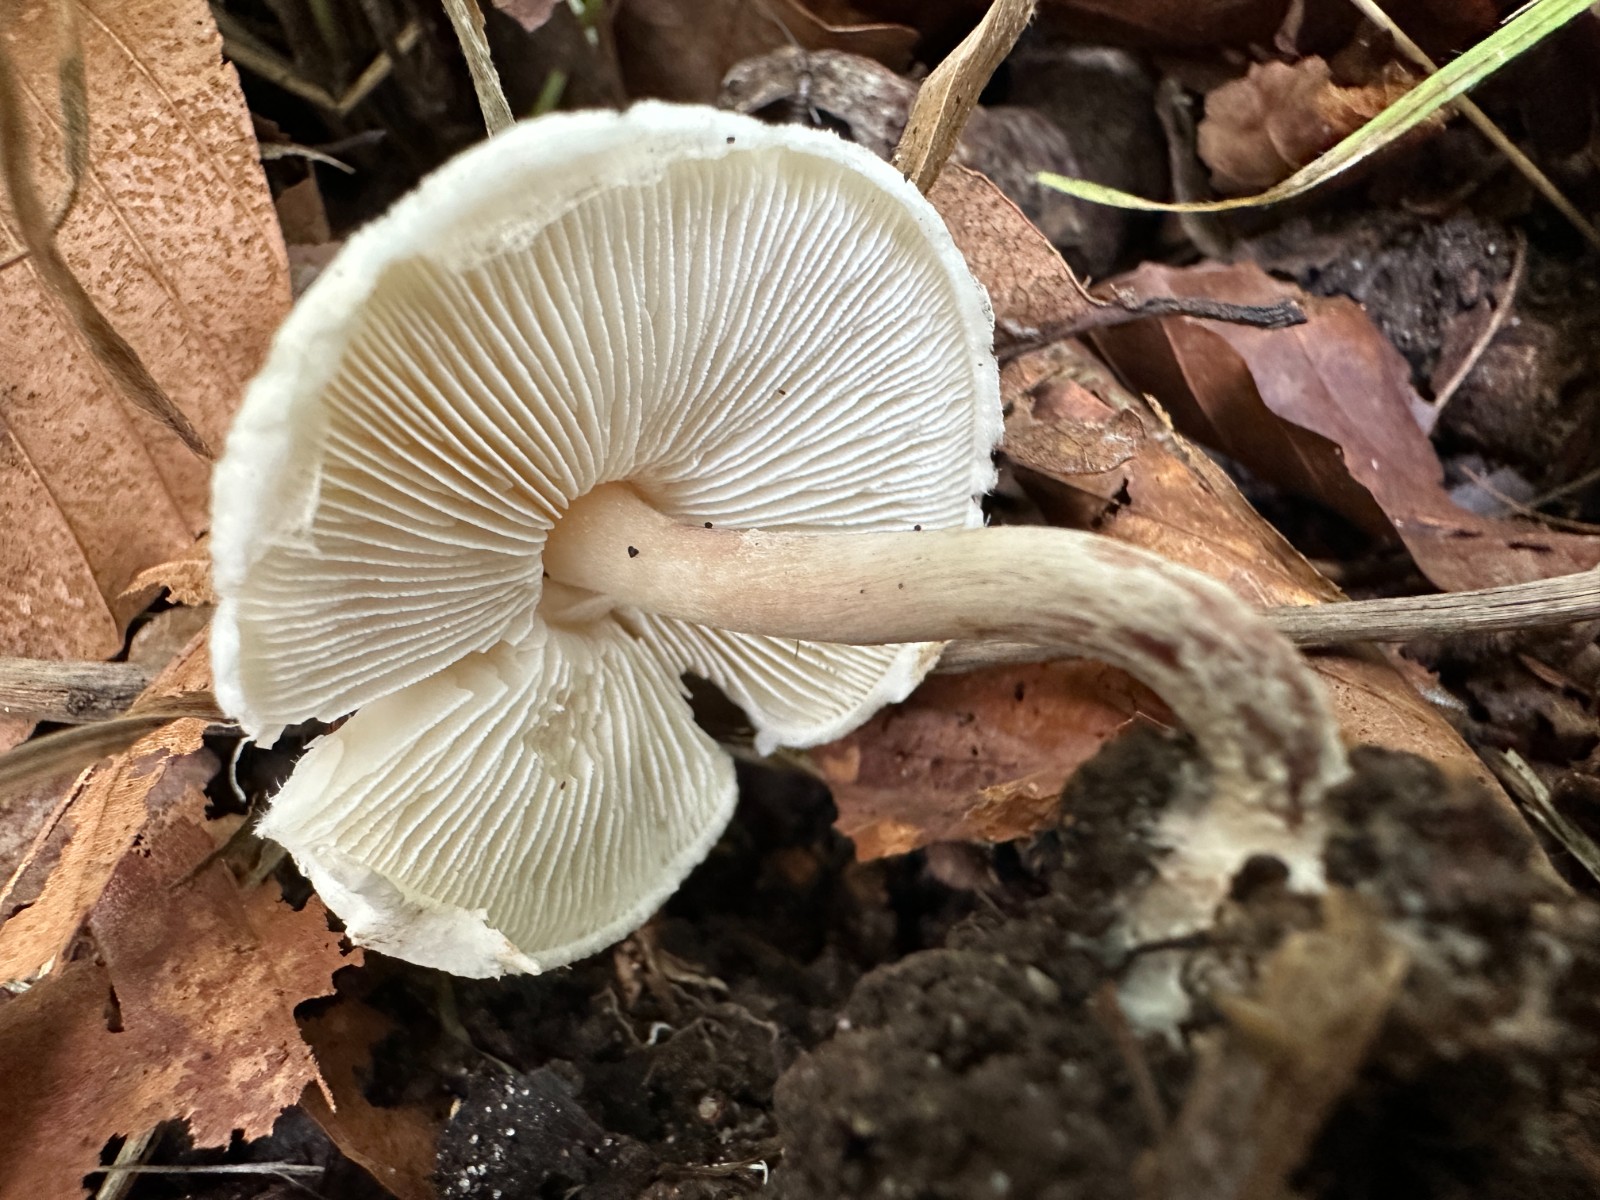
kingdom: Fungi
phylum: Basidiomycota
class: Agaricomycetes
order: Agaricales
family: Agaricaceae
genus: Lepiota
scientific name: Lepiota cristata
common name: stinkende parasolhat
